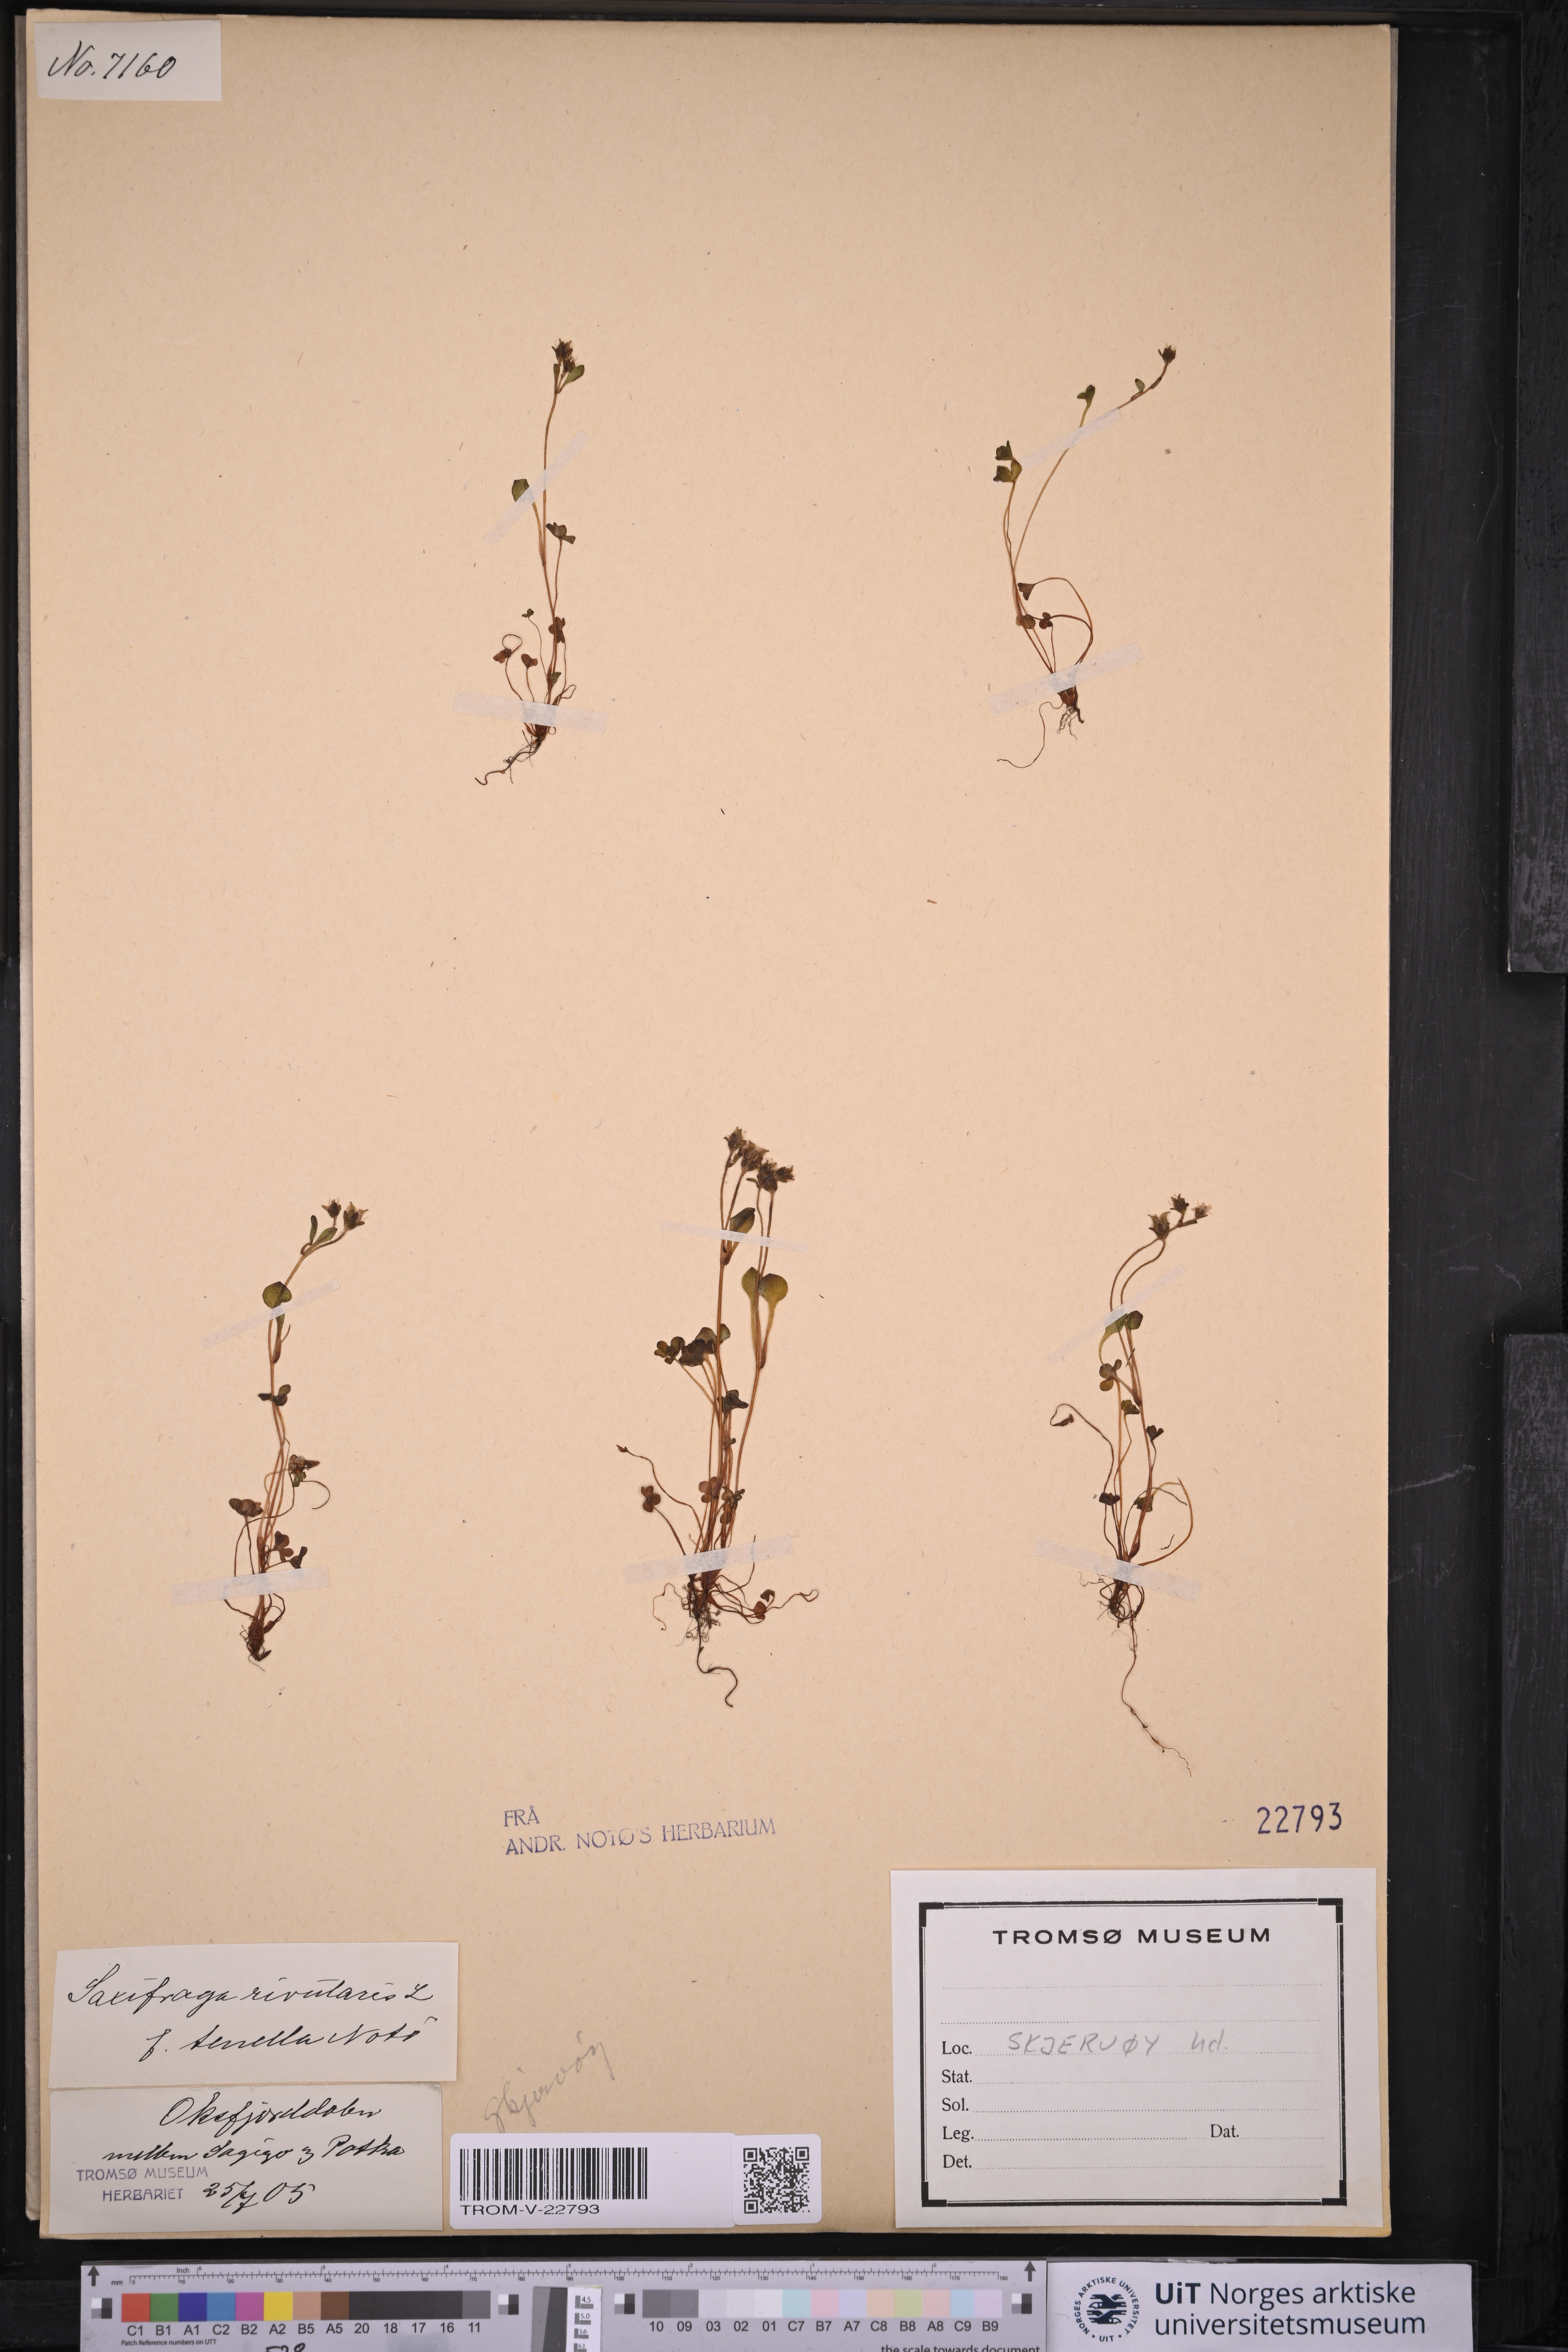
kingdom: Plantae
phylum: Tracheophyta
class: Magnoliopsida
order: Saxifragales
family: Saxifragaceae
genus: Saxifraga
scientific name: Saxifraga rivularis
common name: Highland saxifrage
